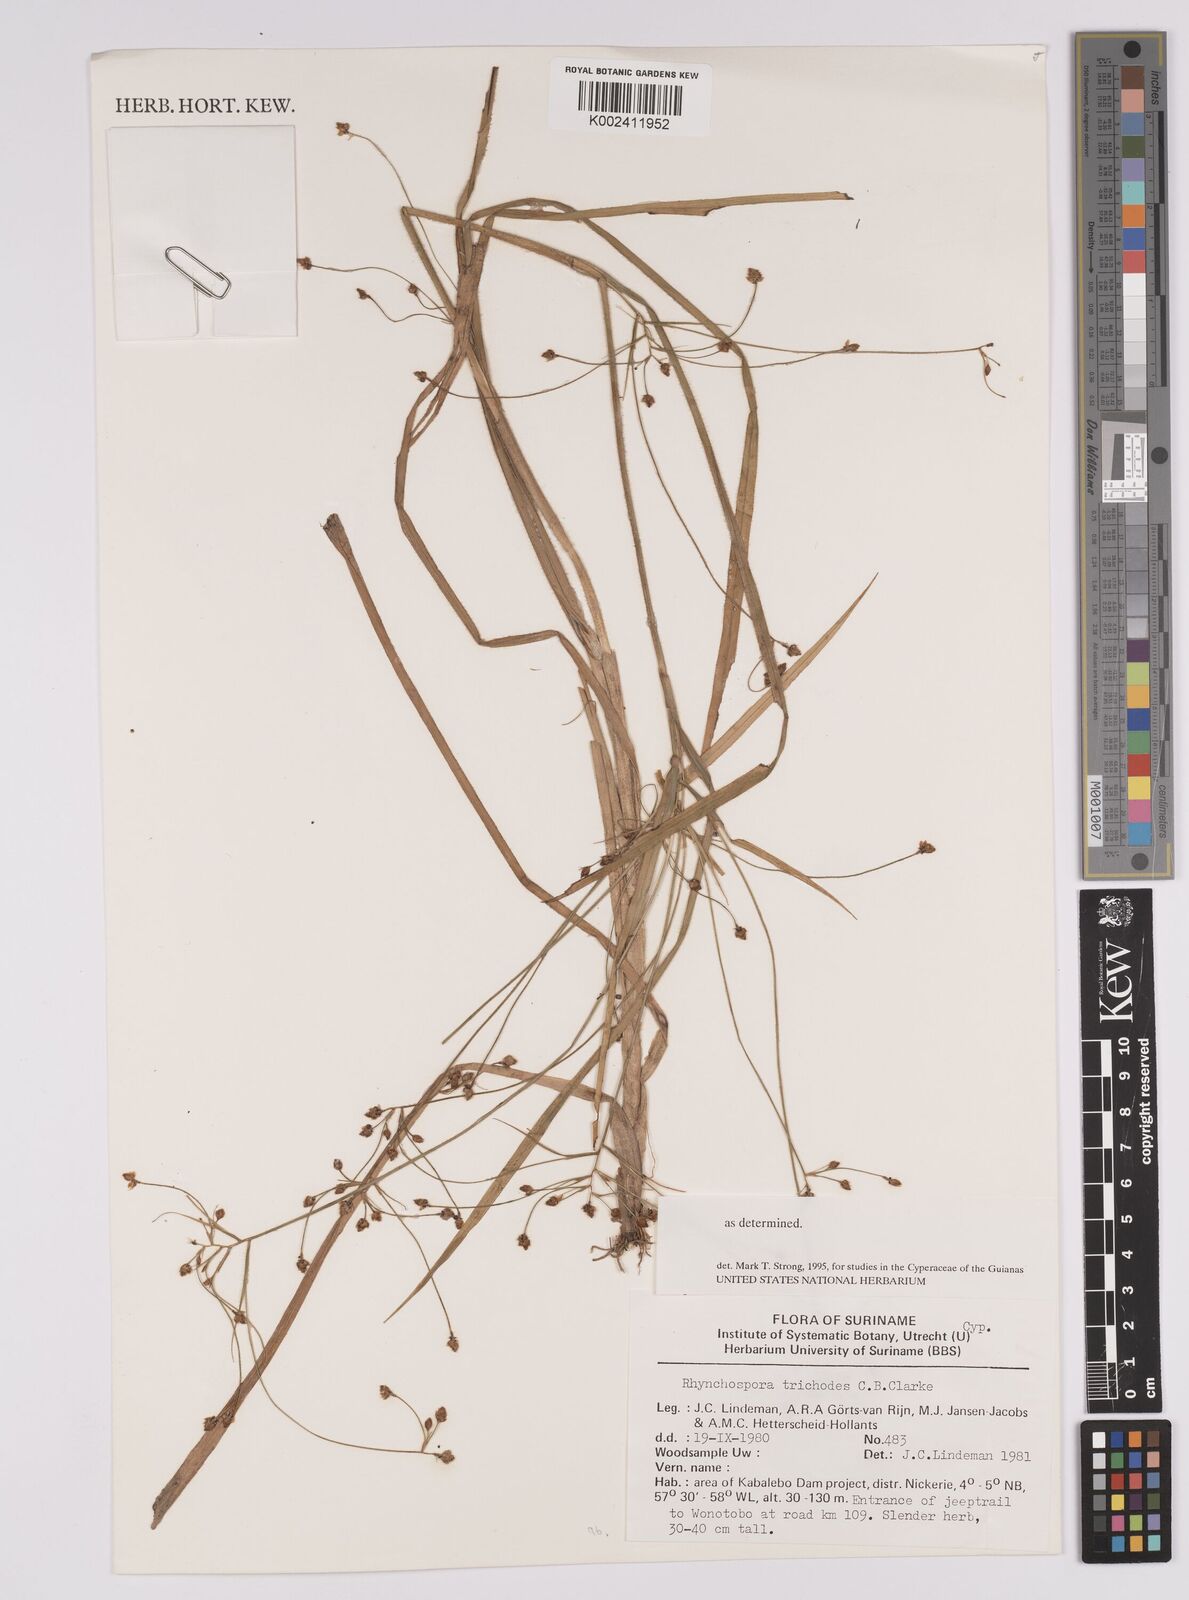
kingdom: Plantae
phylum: Tracheophyta
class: Liliopsida
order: Poales
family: Cyperaceae
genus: Rhynchospora
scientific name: Rhynchospora divaricata
